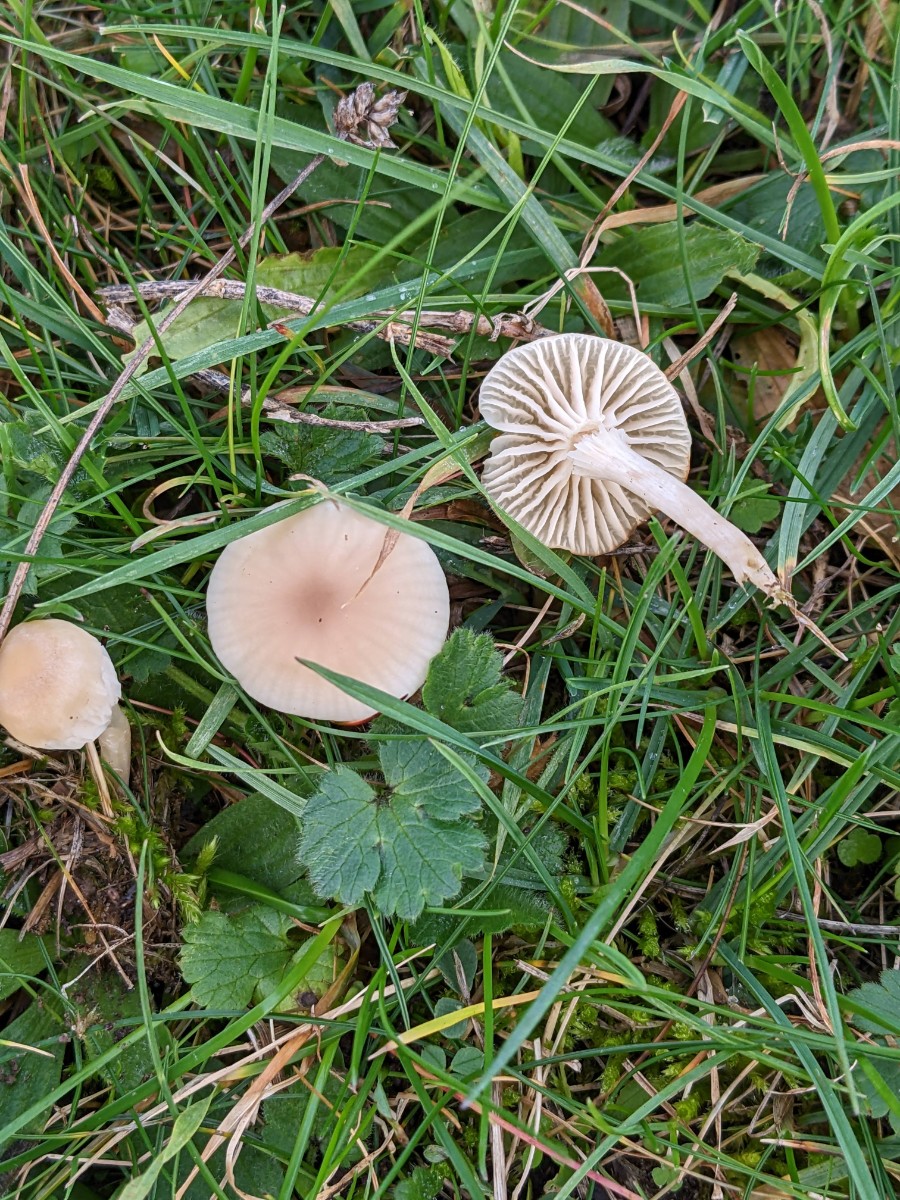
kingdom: Fungi
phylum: Basidiomycota
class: Agaricomycetes
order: Agaricales
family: Hygrophoraceae
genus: Cuphophyllus
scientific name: Cuphophyllus virgineus
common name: isabella-vokshat
